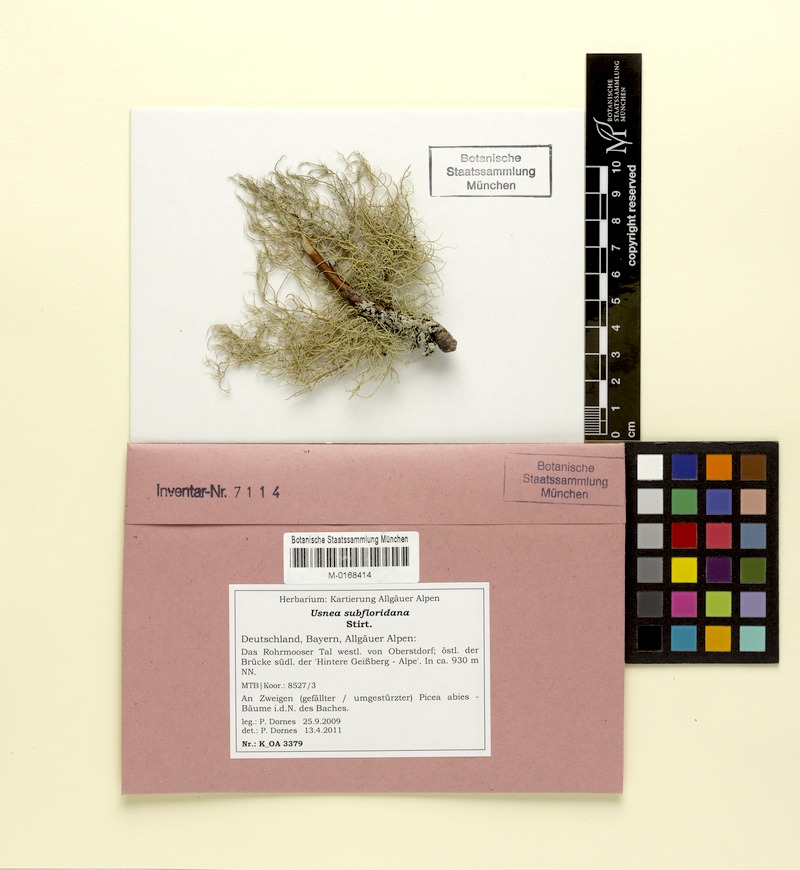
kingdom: Fungi
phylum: Ascomycota
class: Lecanoromycetes
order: Lecanorales
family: Parmeliaceae
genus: Usnea
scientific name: Usnea subfloridana
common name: Boreal beard lichen
